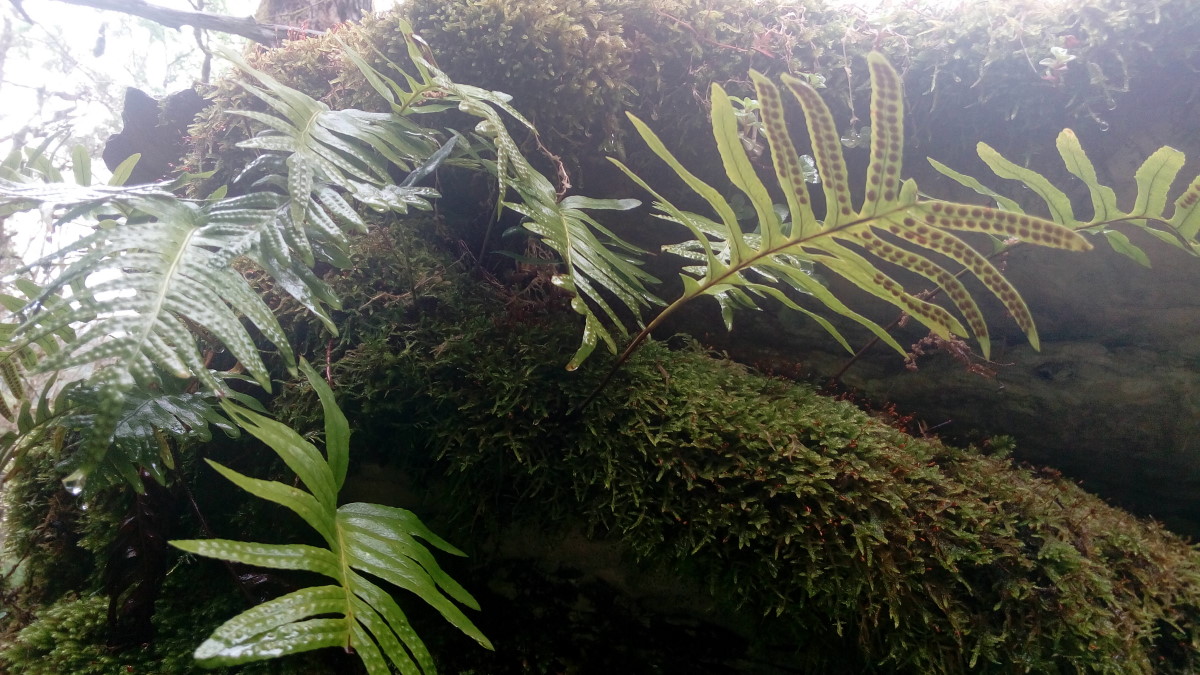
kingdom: Plantae
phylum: Tracheophyta
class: Polypodiopsida
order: Polypodiales
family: Polypodiaceae
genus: Polypodium
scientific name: Polypodium vulgare
